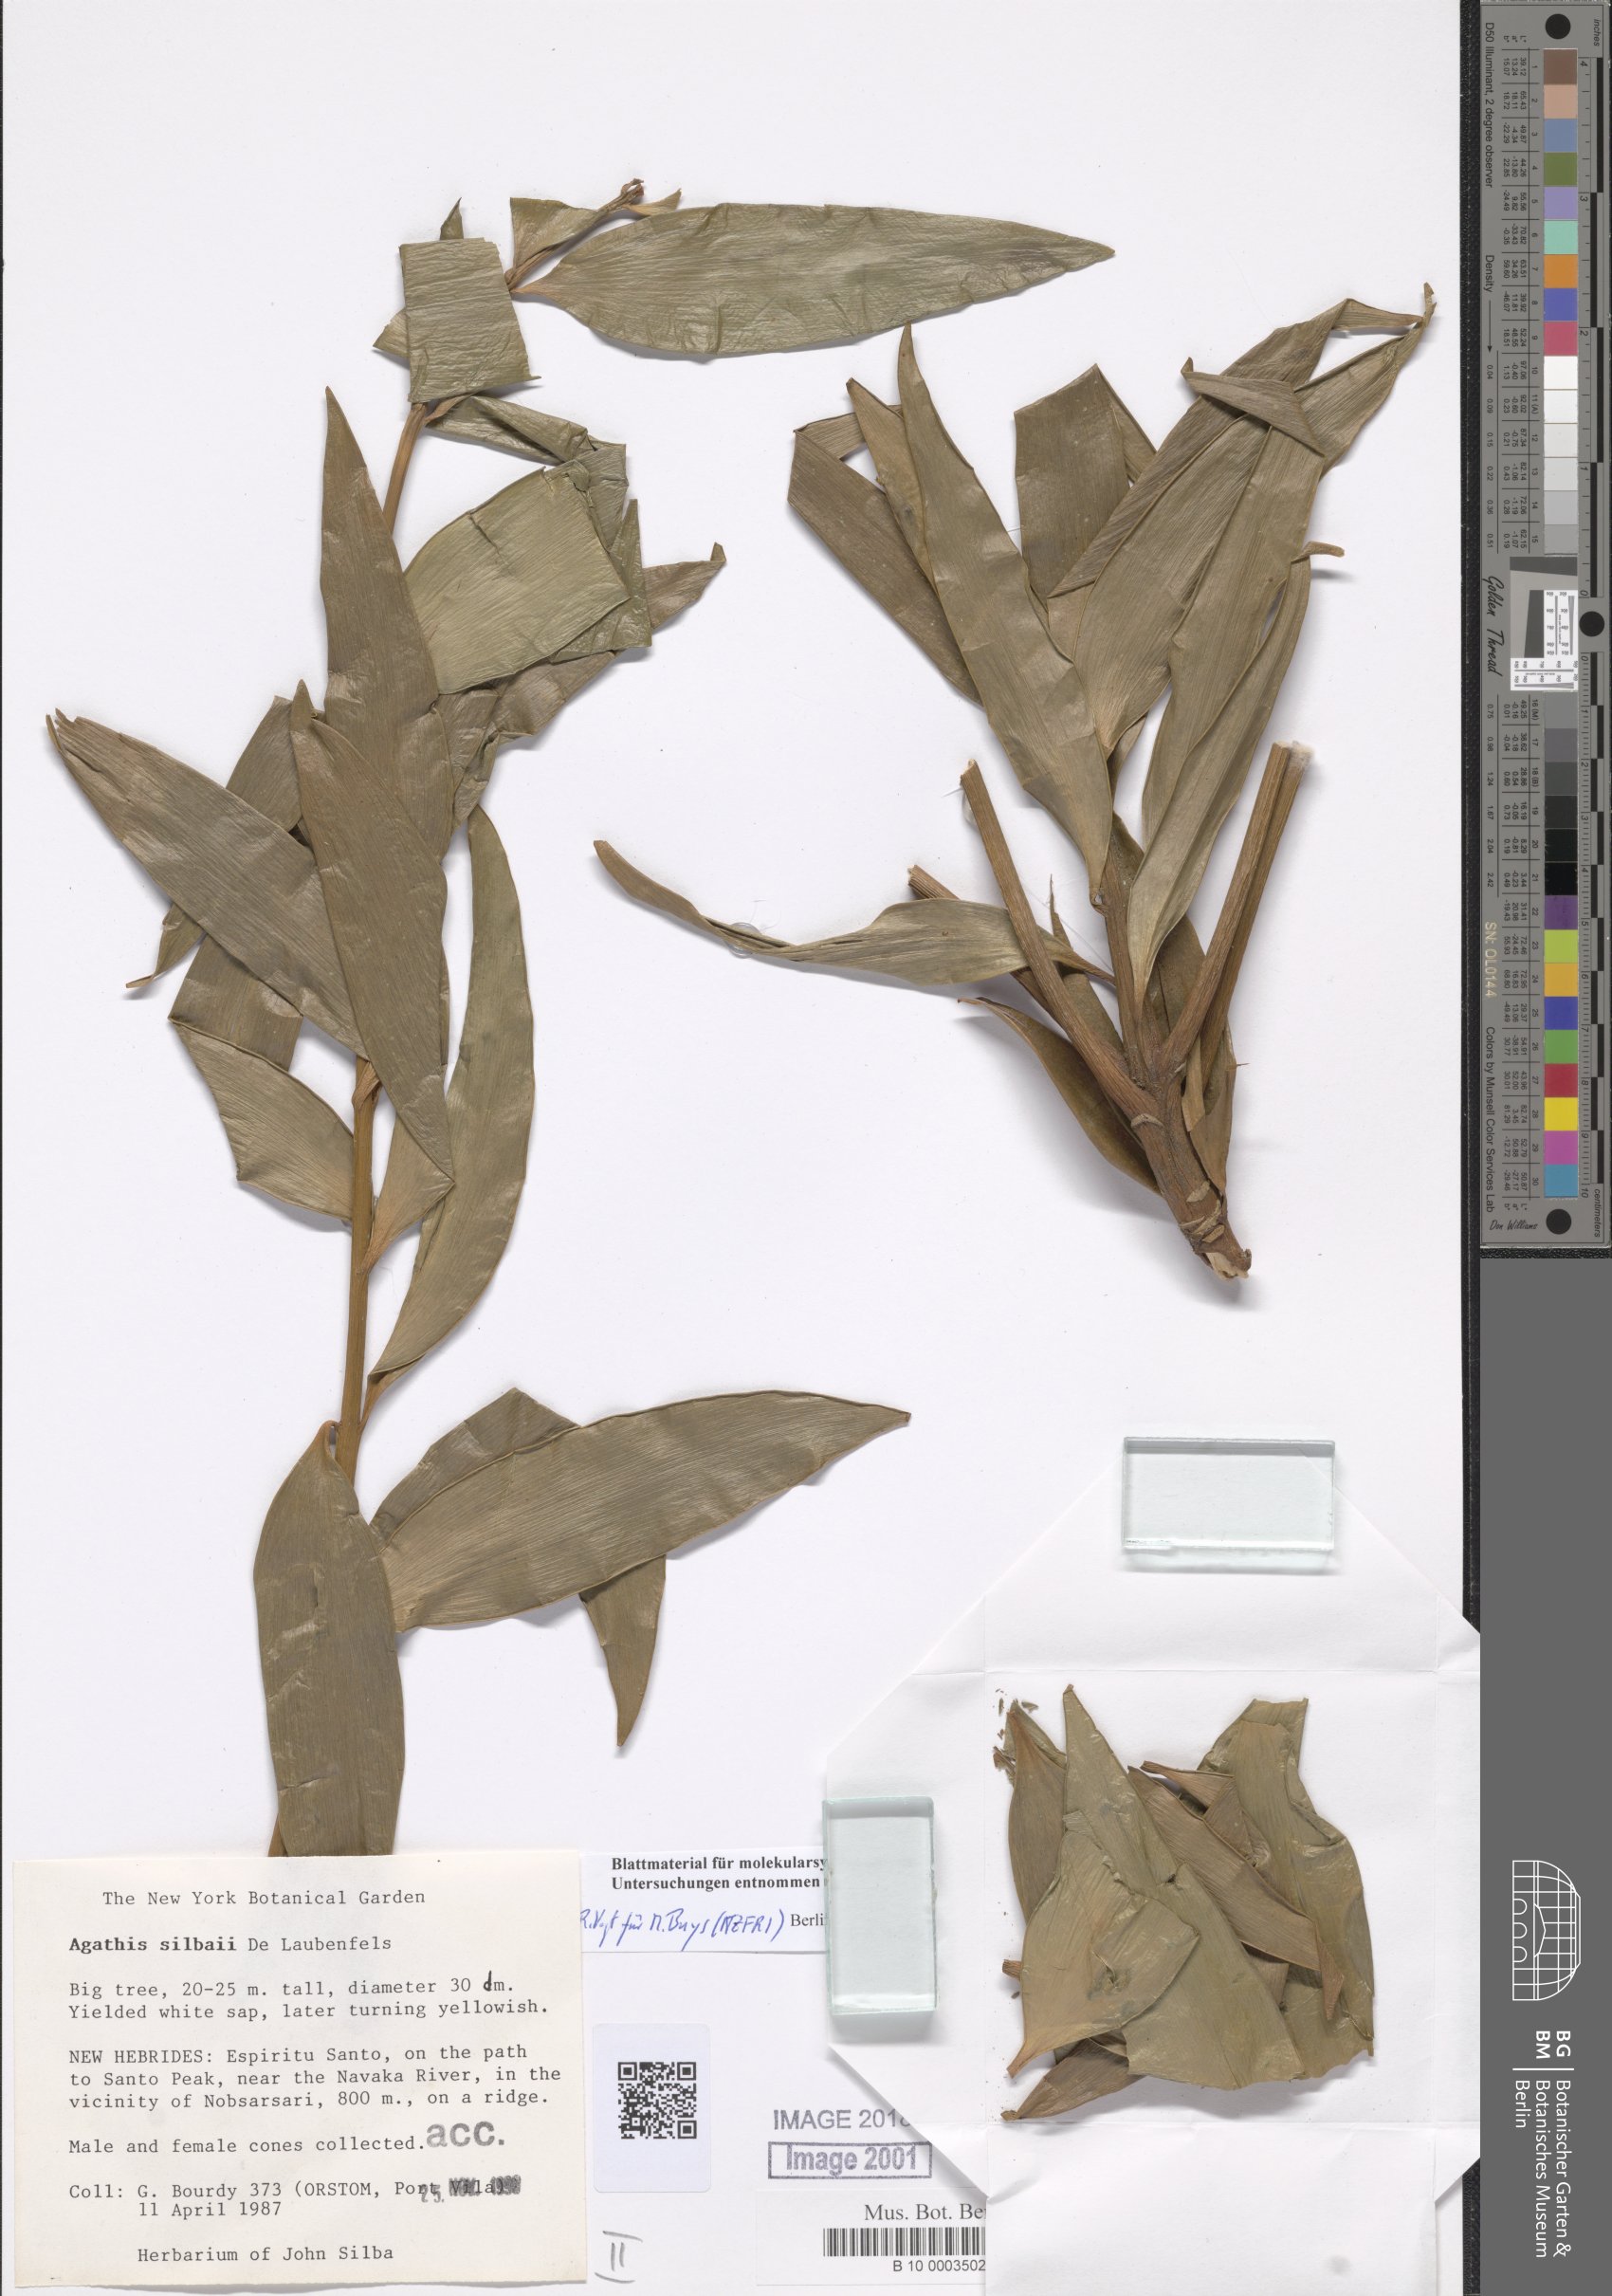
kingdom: Plantae
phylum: Tracheophyta
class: Pinopsida
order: Pinales
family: Araucariaceae
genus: Agathis
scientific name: Agathis silbae
